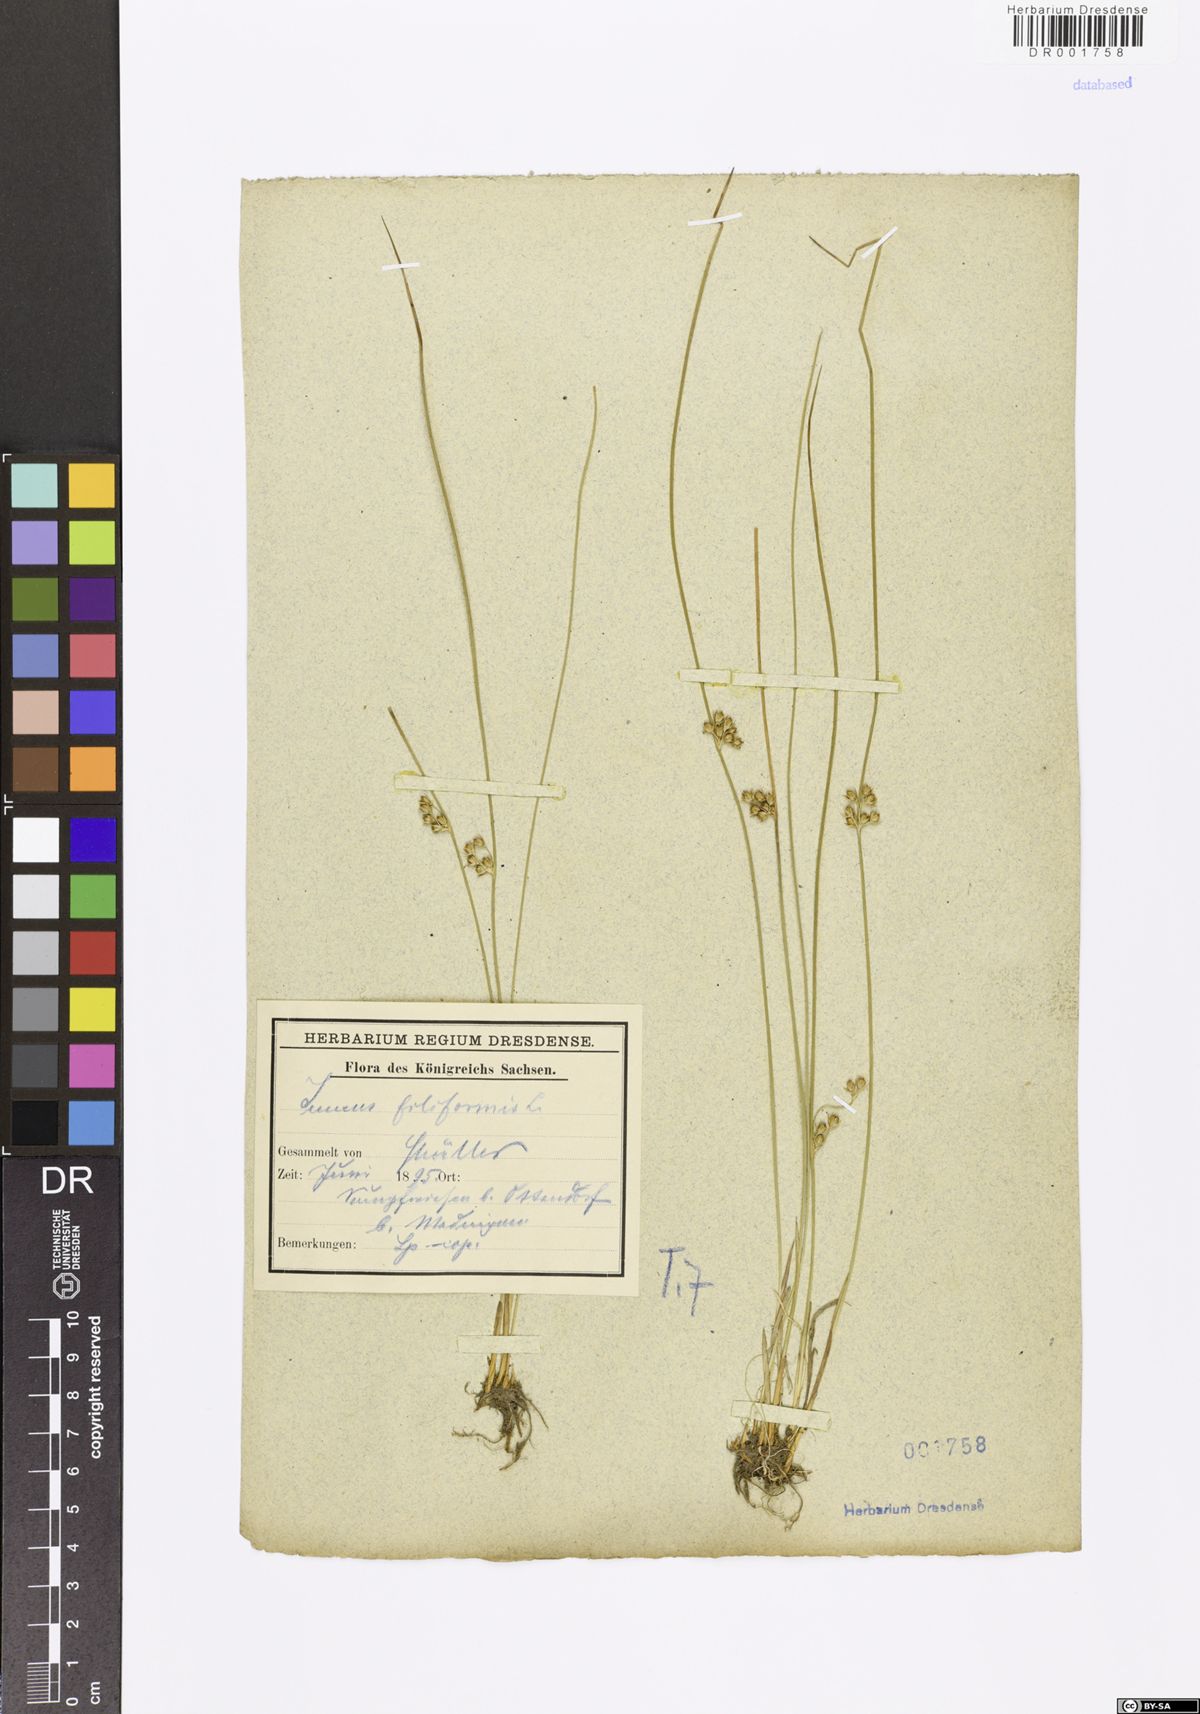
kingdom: Plantae
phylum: Tracheophyta
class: Liliopsida
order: Poales
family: Juncaceae
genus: Juncus
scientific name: Juncus inflexus
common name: Hard rush
